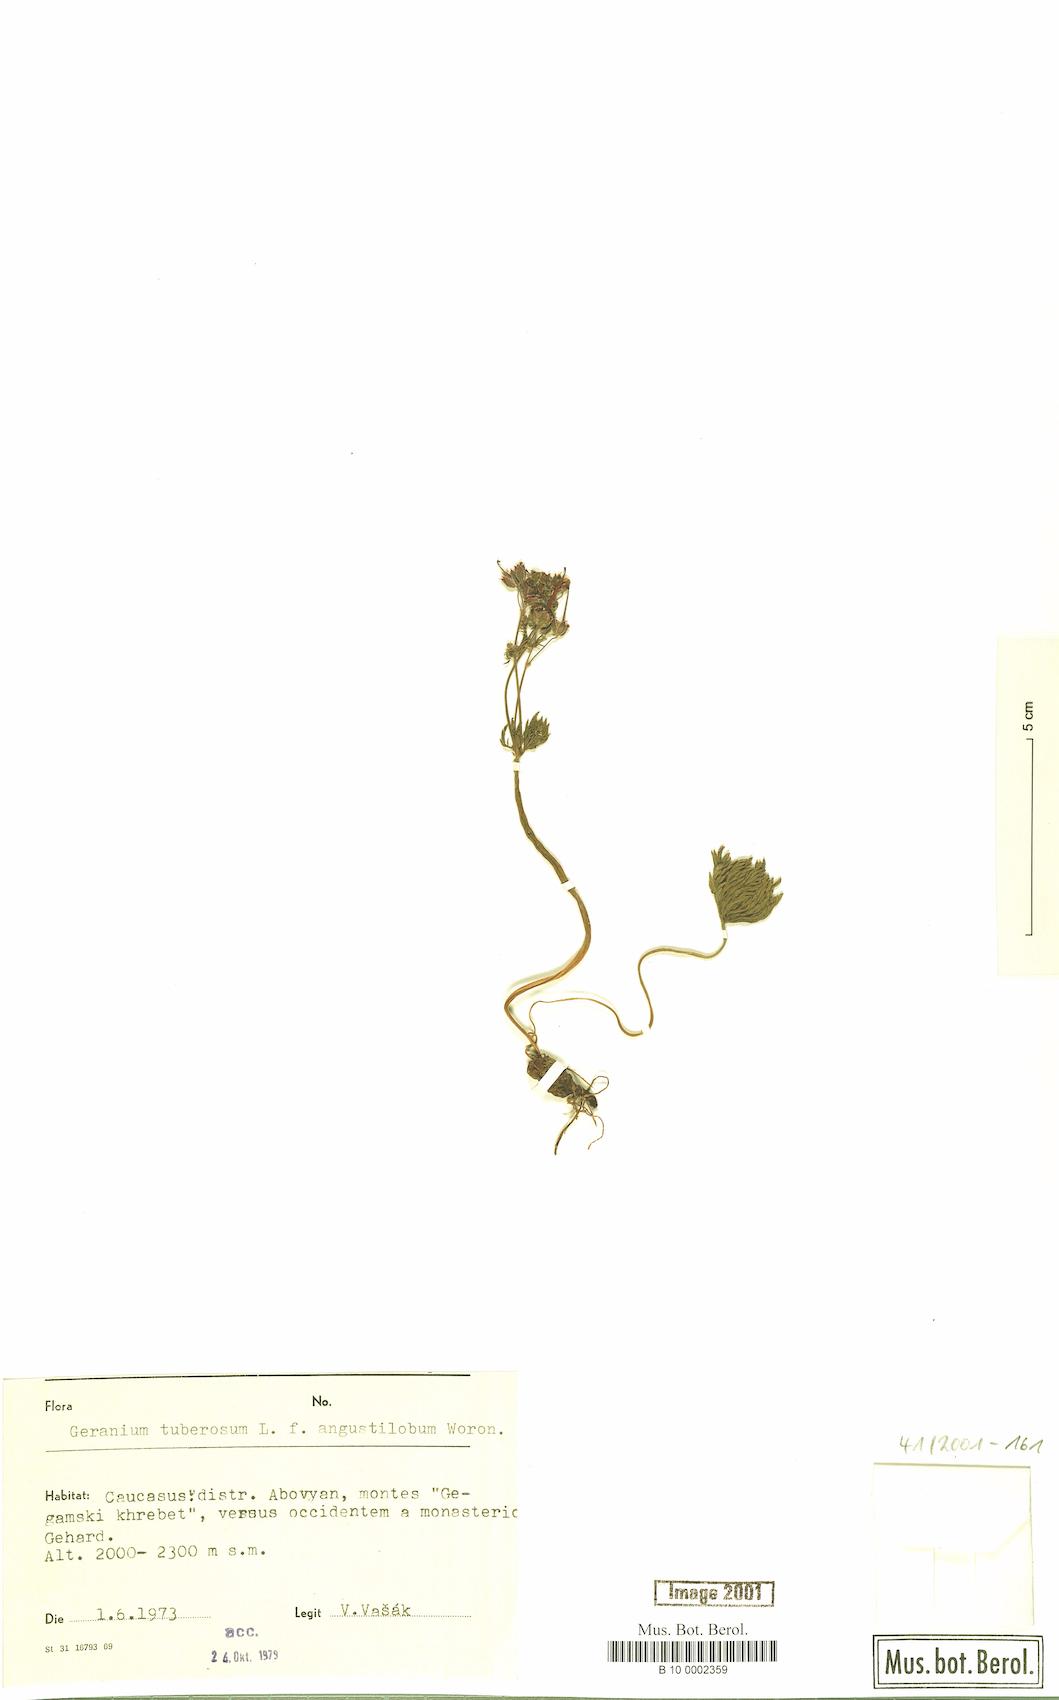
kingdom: Plantae
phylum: Tracheophyta
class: Magnoliopsida
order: Geraniales
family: Geraniaceae
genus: Geranium
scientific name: Geranium tuberosum
